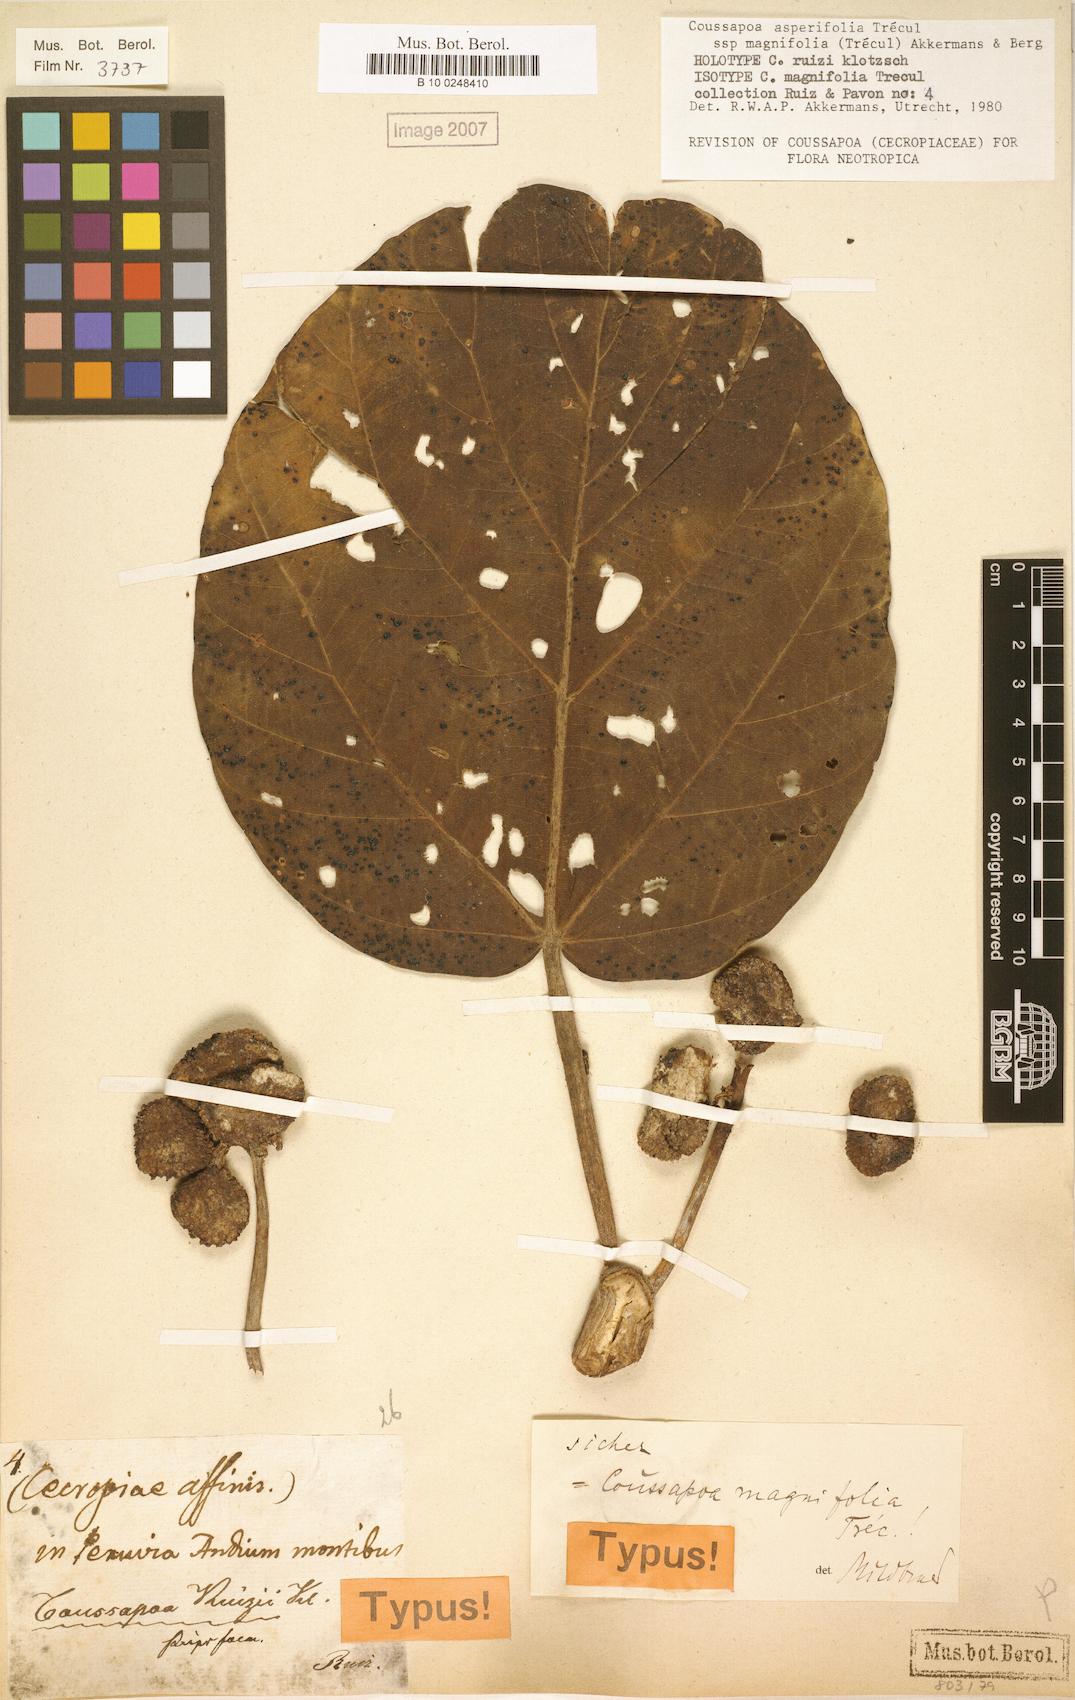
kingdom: Plantae
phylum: Tracheophyta
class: Magnoliopsida
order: Rosales
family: Urticaceae
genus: Coussapoa
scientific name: Coussapoa asperifolia
